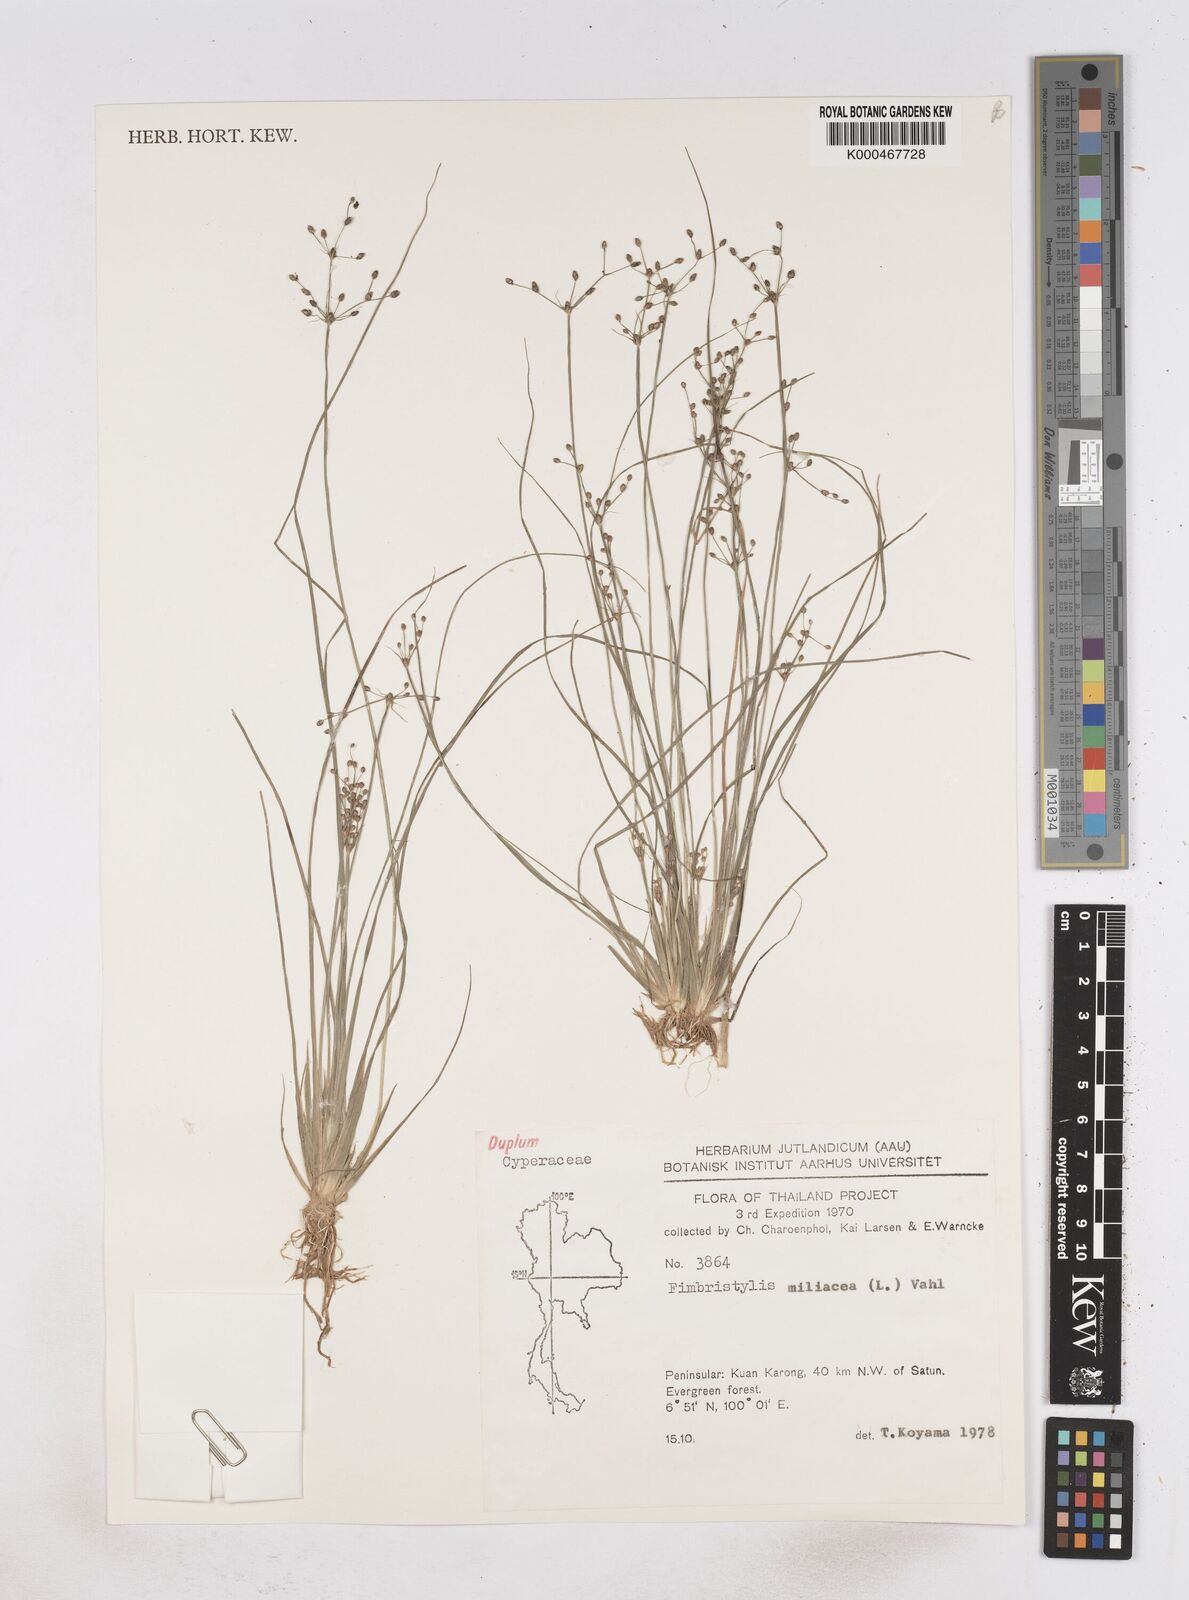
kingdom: Plantae
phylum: Tracheophyta
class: Liliopsida
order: Poales
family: Cyperaceae
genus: Fimbristylis
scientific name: Fimbristylis quinquangularis
